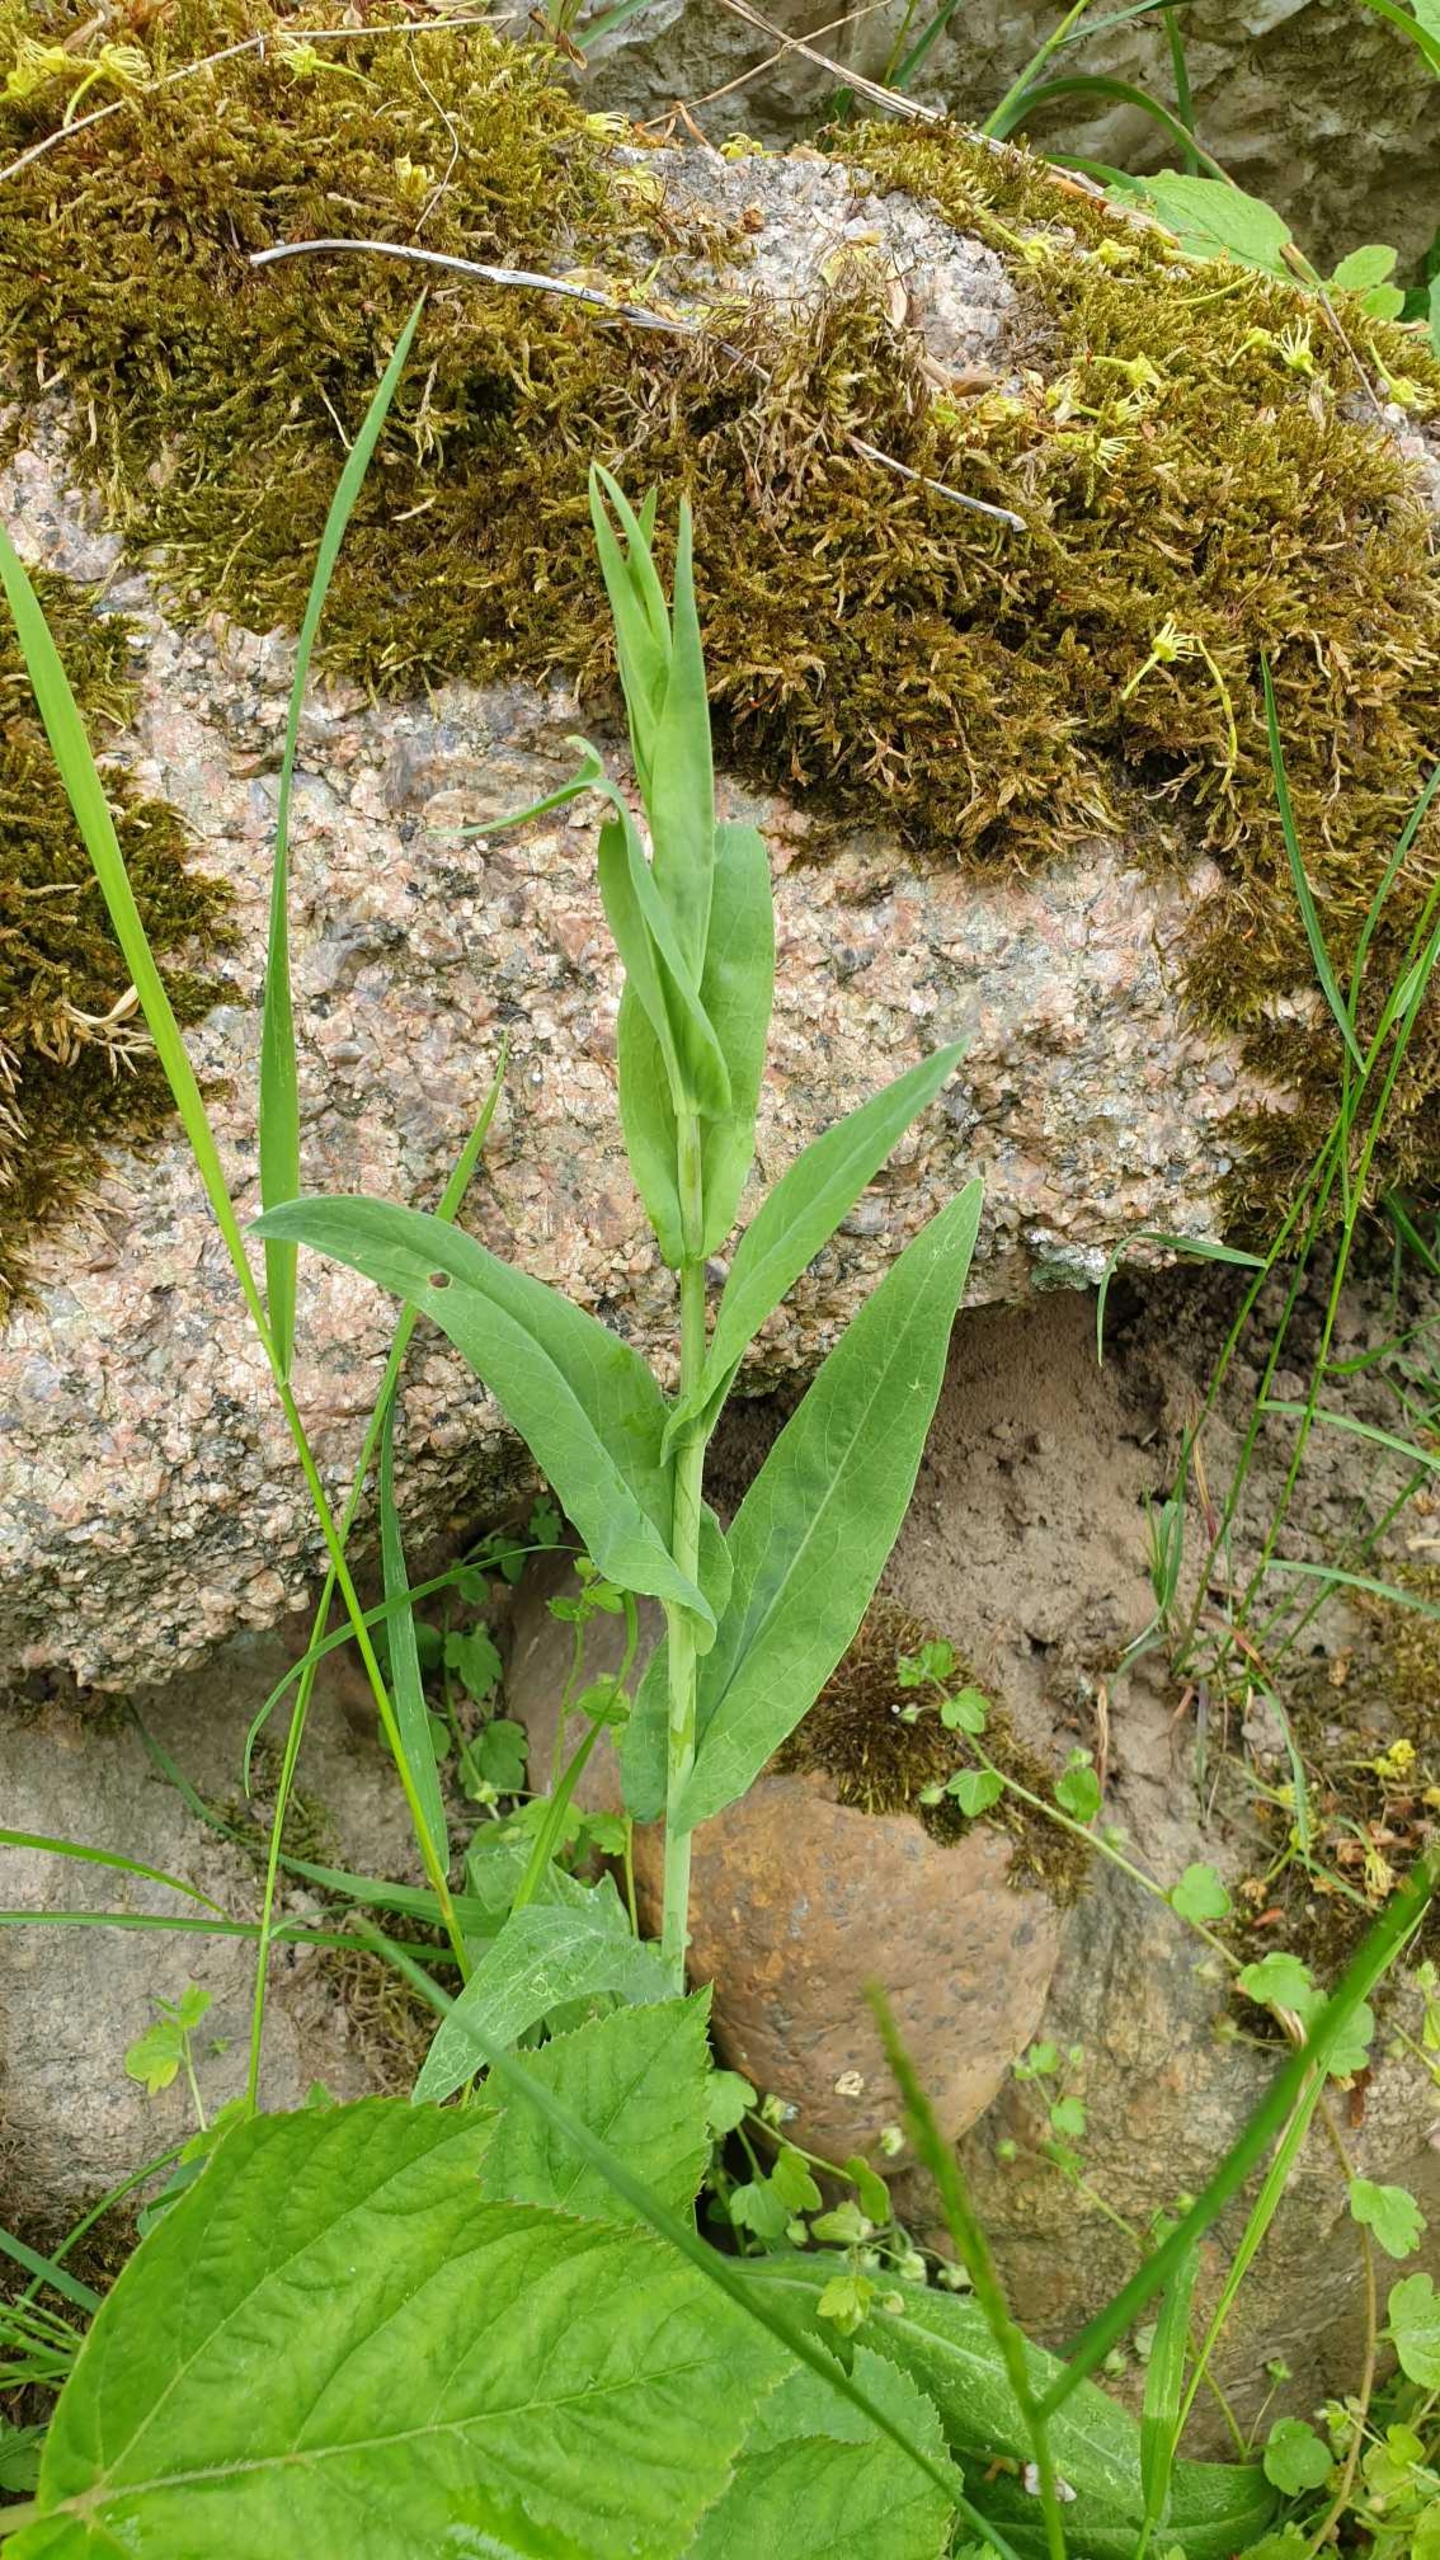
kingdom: Plantae
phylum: Tracheophyta
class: Magnoliopsida
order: Brassicales
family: Brassicaceae
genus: Turritis
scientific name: Turritis glabra
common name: Tårnurt
